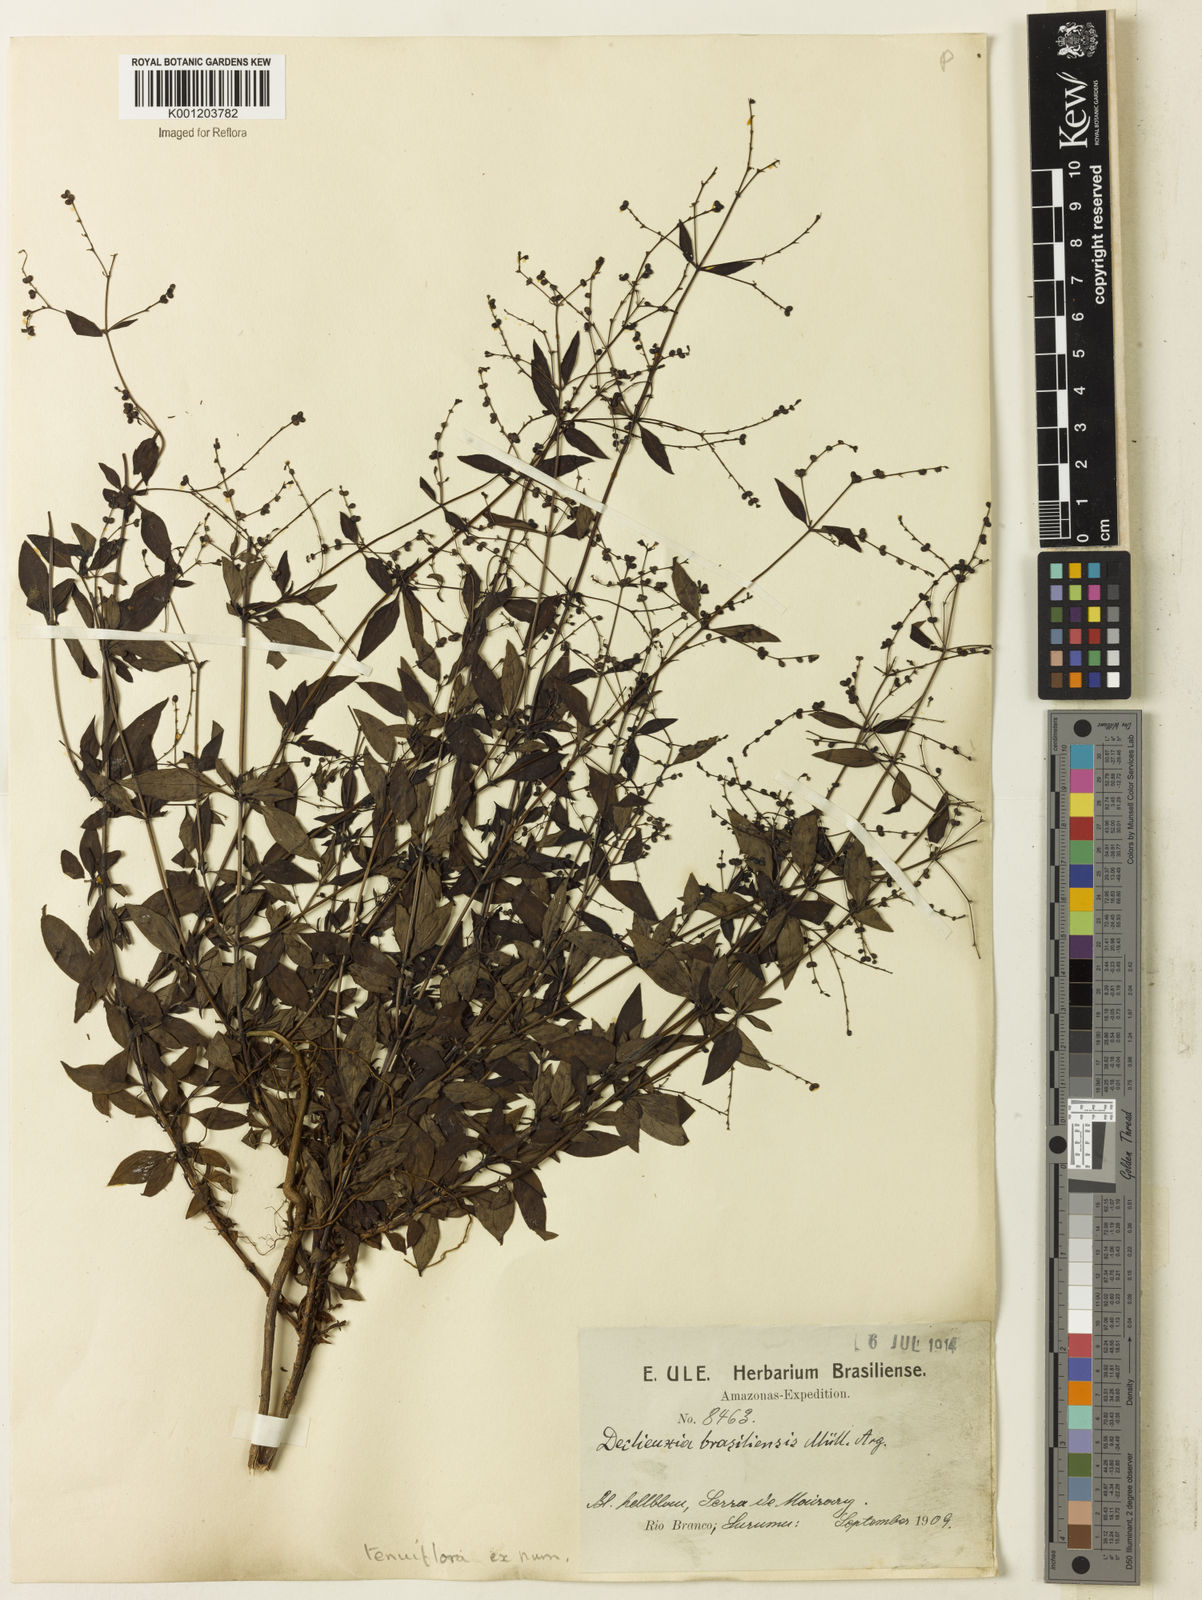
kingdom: Plantae
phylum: Tracheophyta
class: Magnoliopsida
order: Gentianales
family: Rubiaceae
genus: Declieuxia
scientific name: Declieuxia tenuiflora
